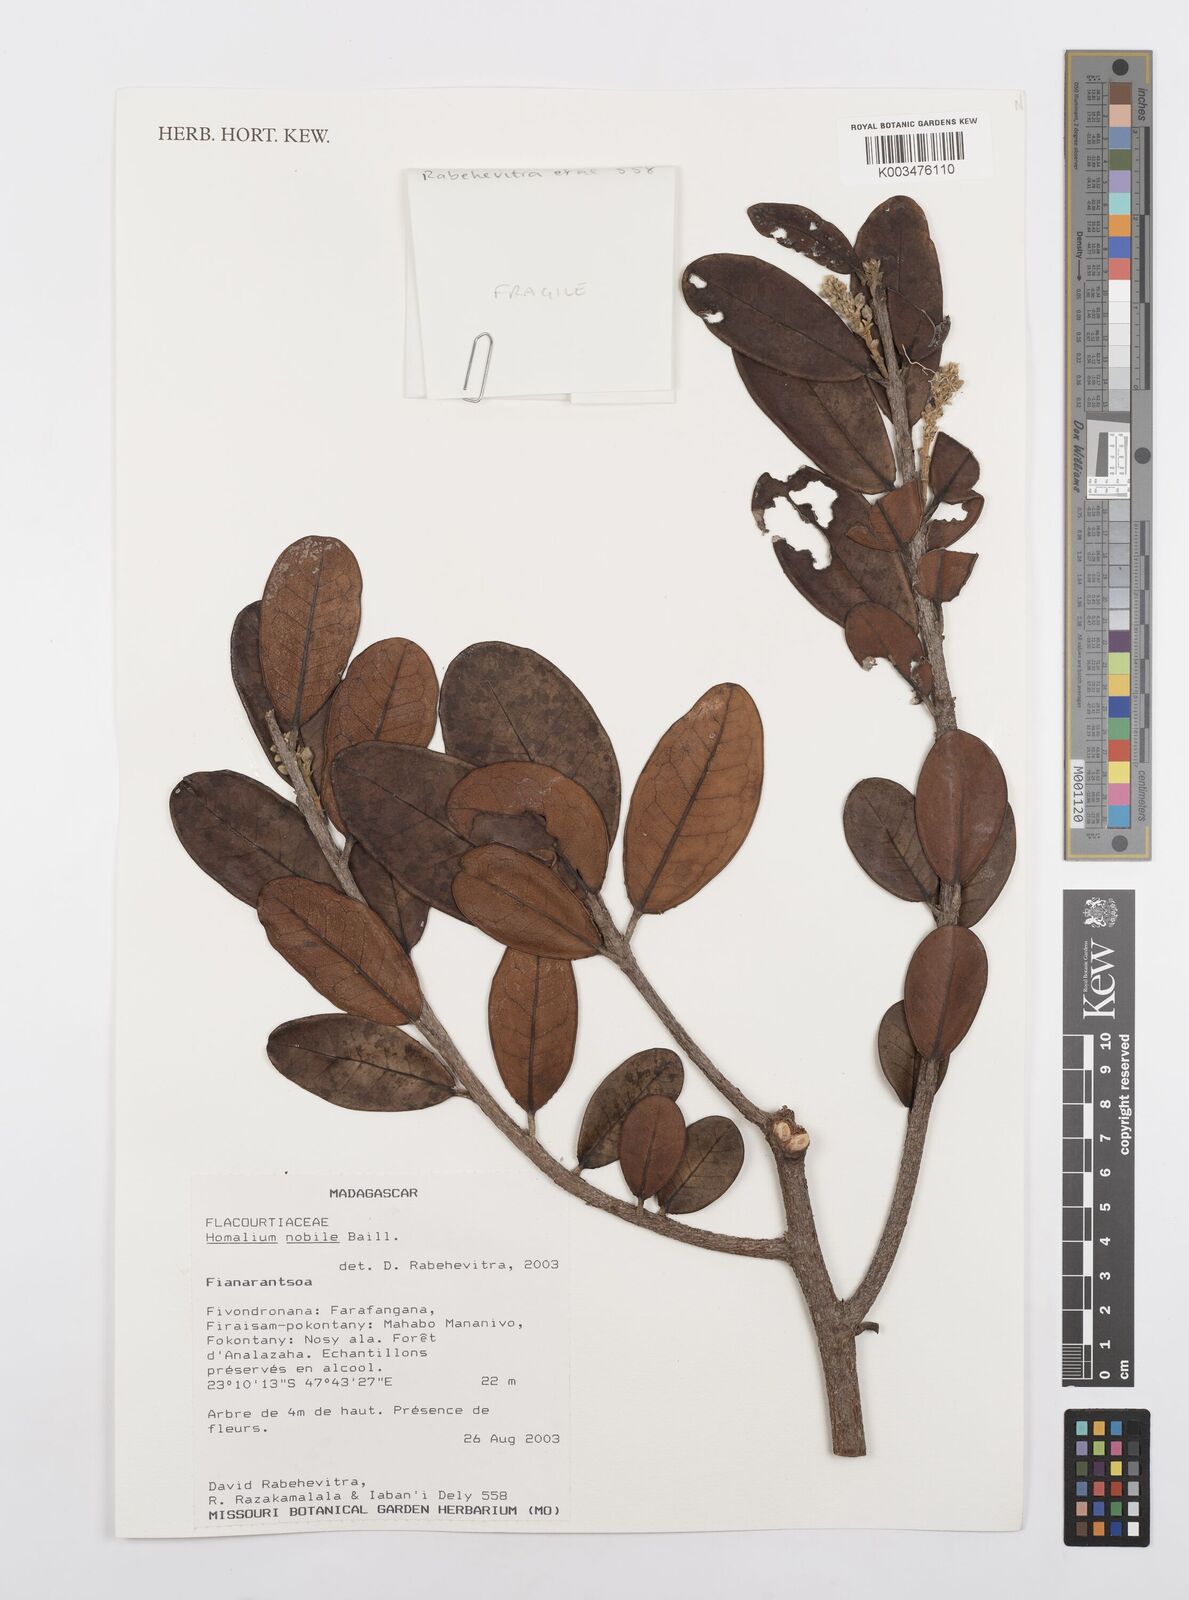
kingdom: Plantae
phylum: Tracheophyta
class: Magnoliopsida
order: Malpighiales
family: Salicaceae
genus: Homalium
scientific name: Homalium nobile
